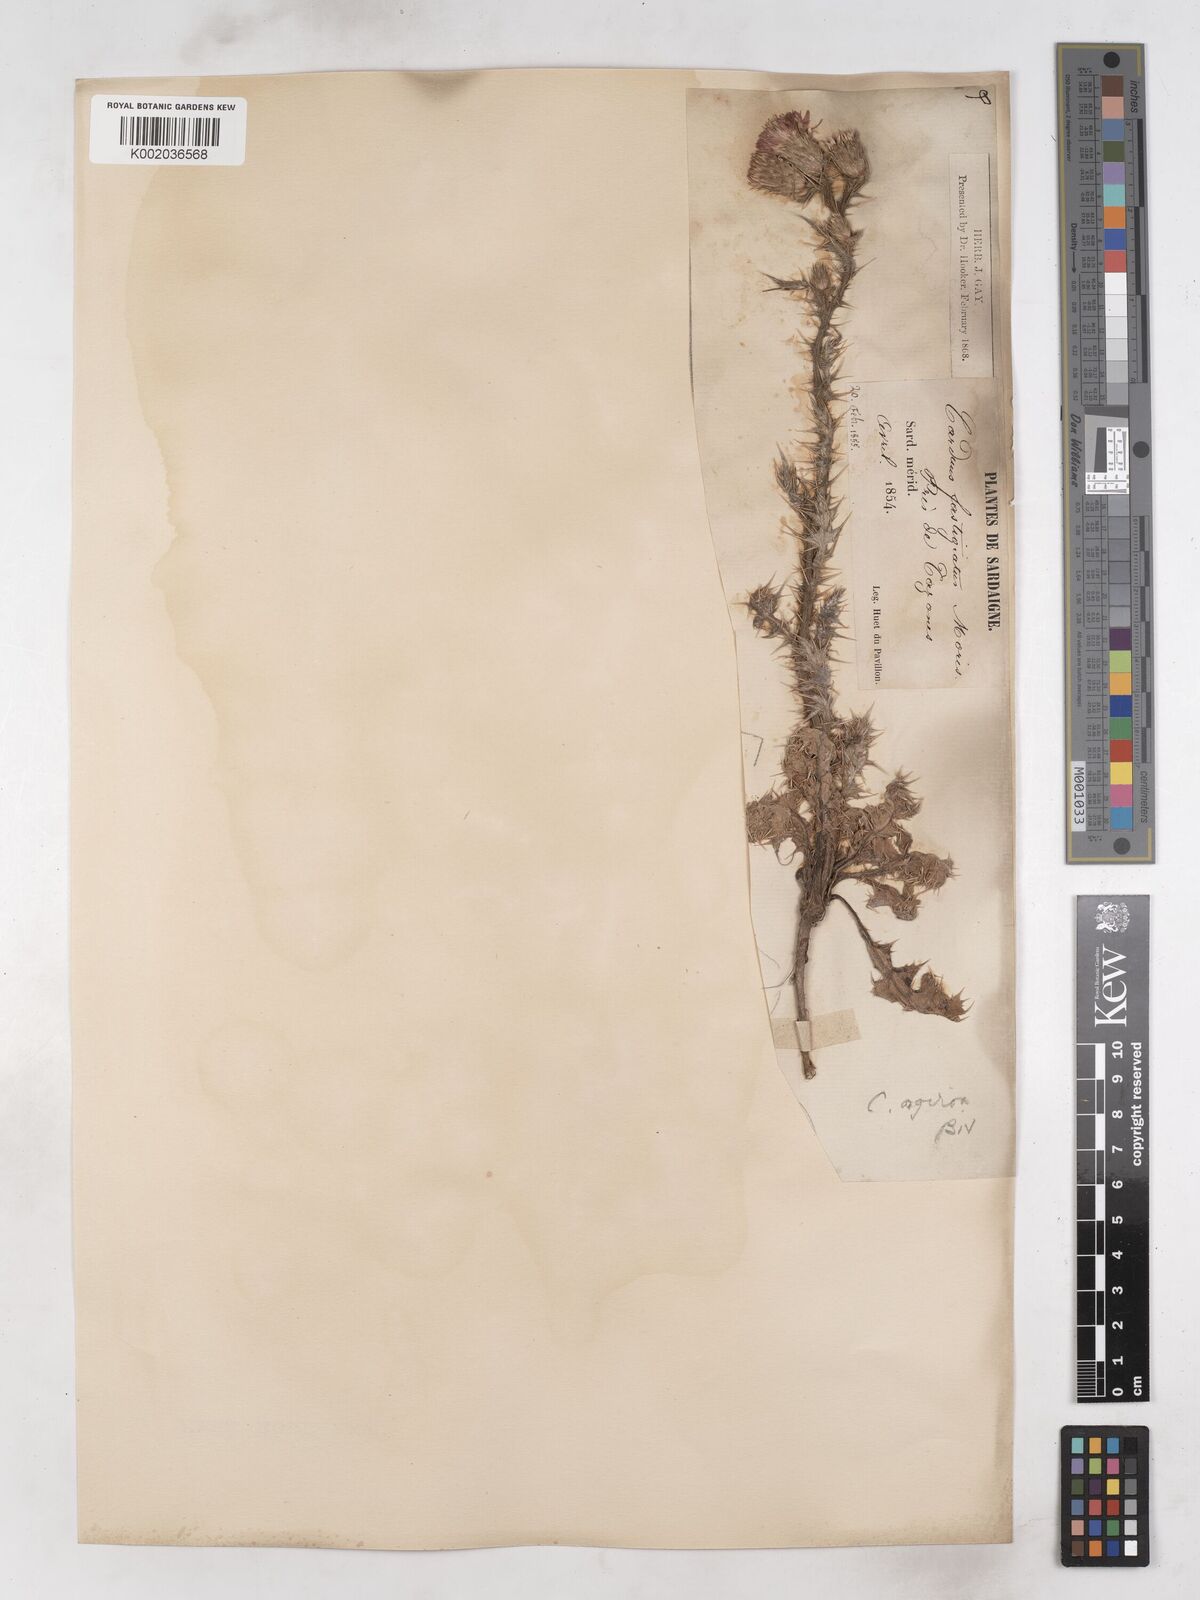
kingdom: Plantae
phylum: Tracheophyta
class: Magnoliopsida
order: Asterales
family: Asteraceae
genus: Carduus
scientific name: Carduus argyroa
